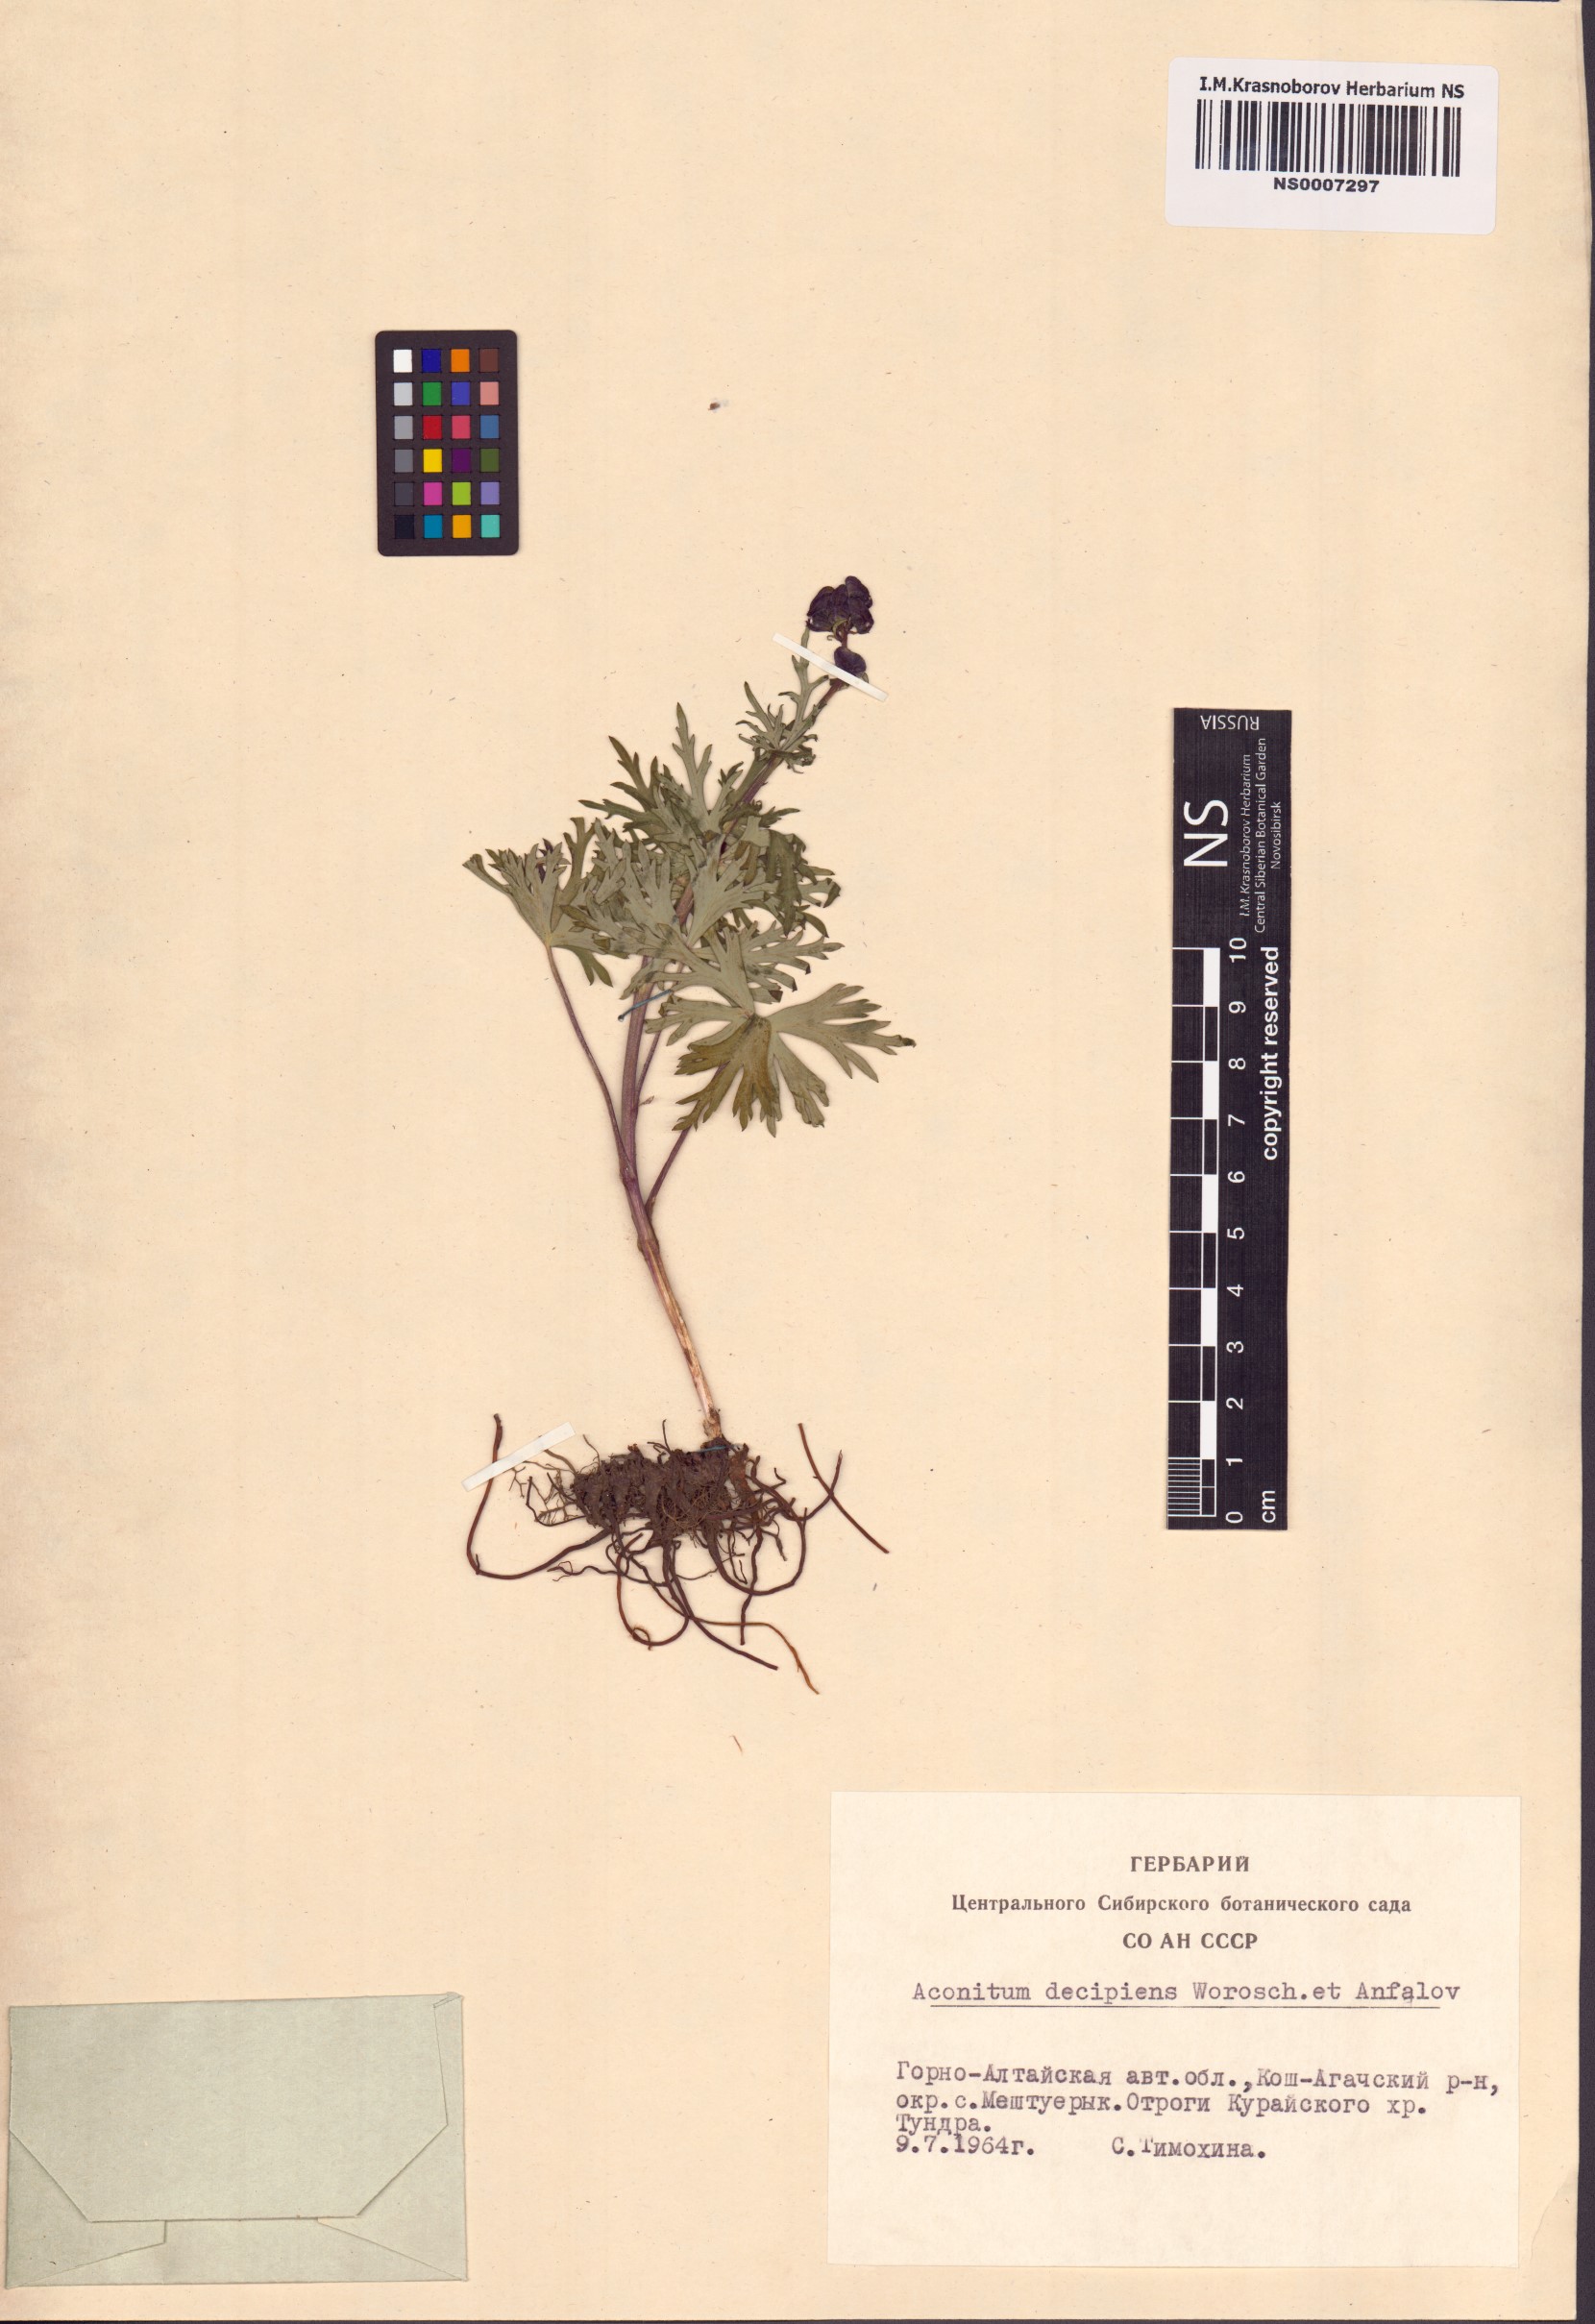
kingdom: Plantae
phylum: Tracheophyta
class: Magnoliopsida
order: Ranunculales
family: Ranunculaceae
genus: Aconitum
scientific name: Aconitum decipiens
